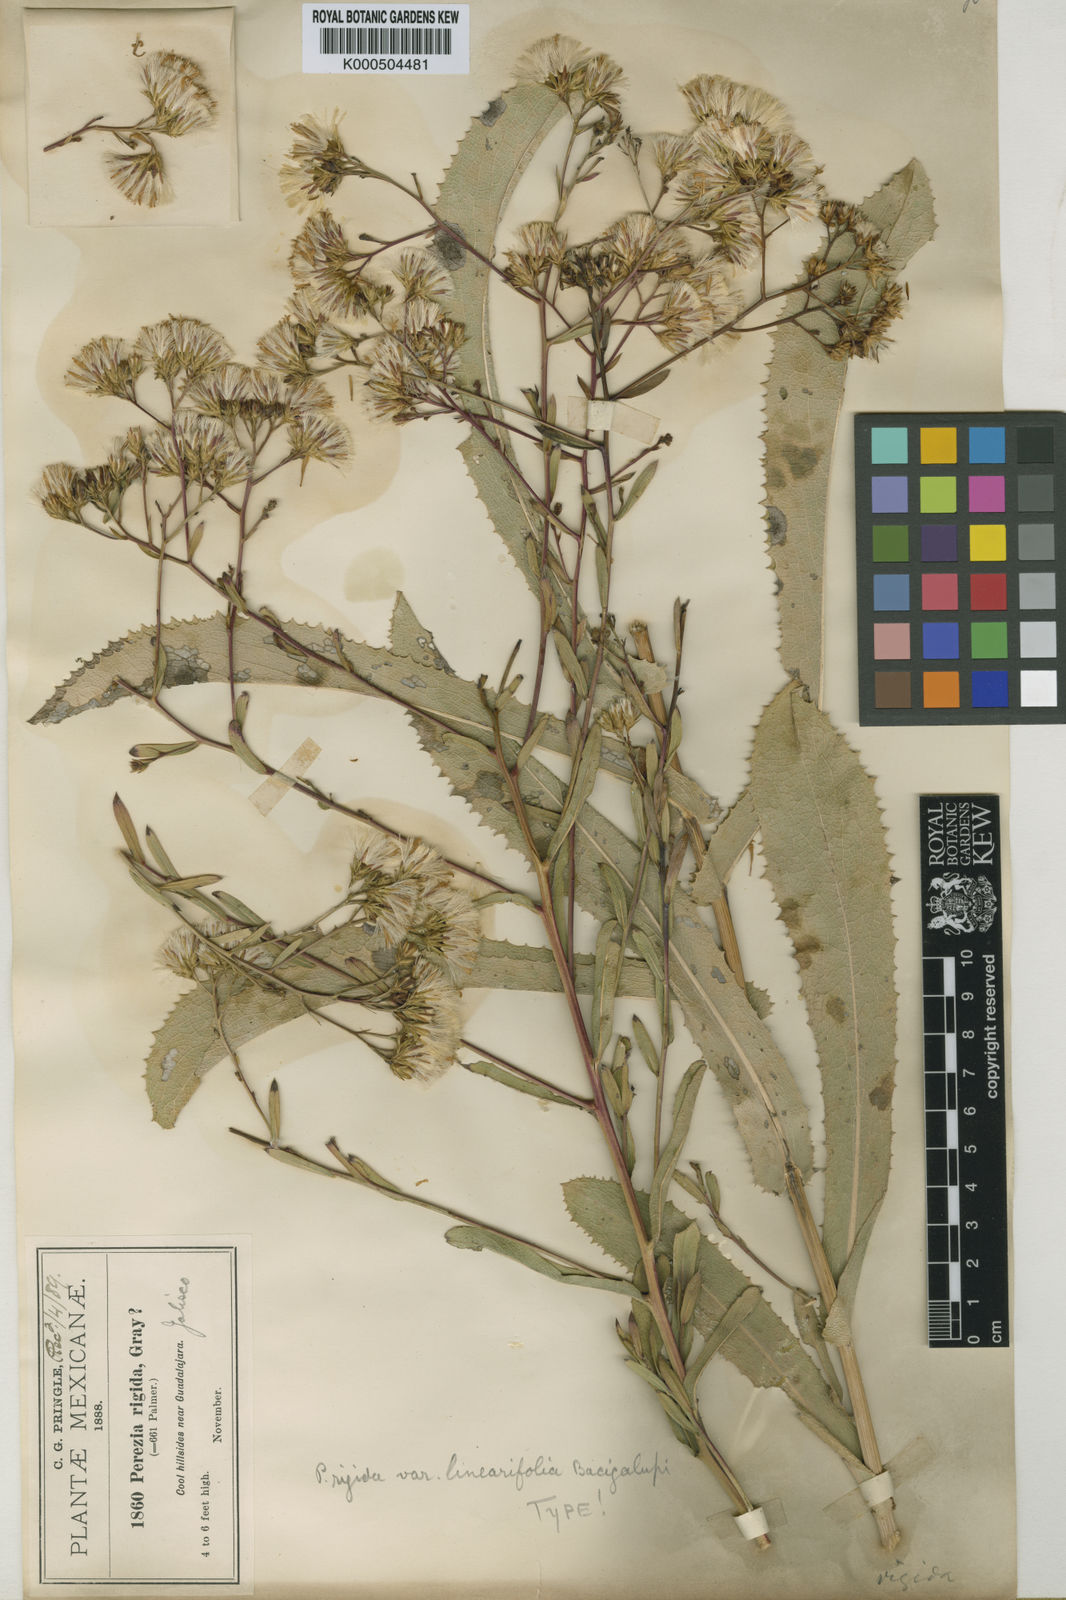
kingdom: Plantae
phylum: Tracheophyta
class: Magnoliopsida
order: Asterales
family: Asteraceae
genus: Acourtia
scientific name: Acourtia fruticosa
